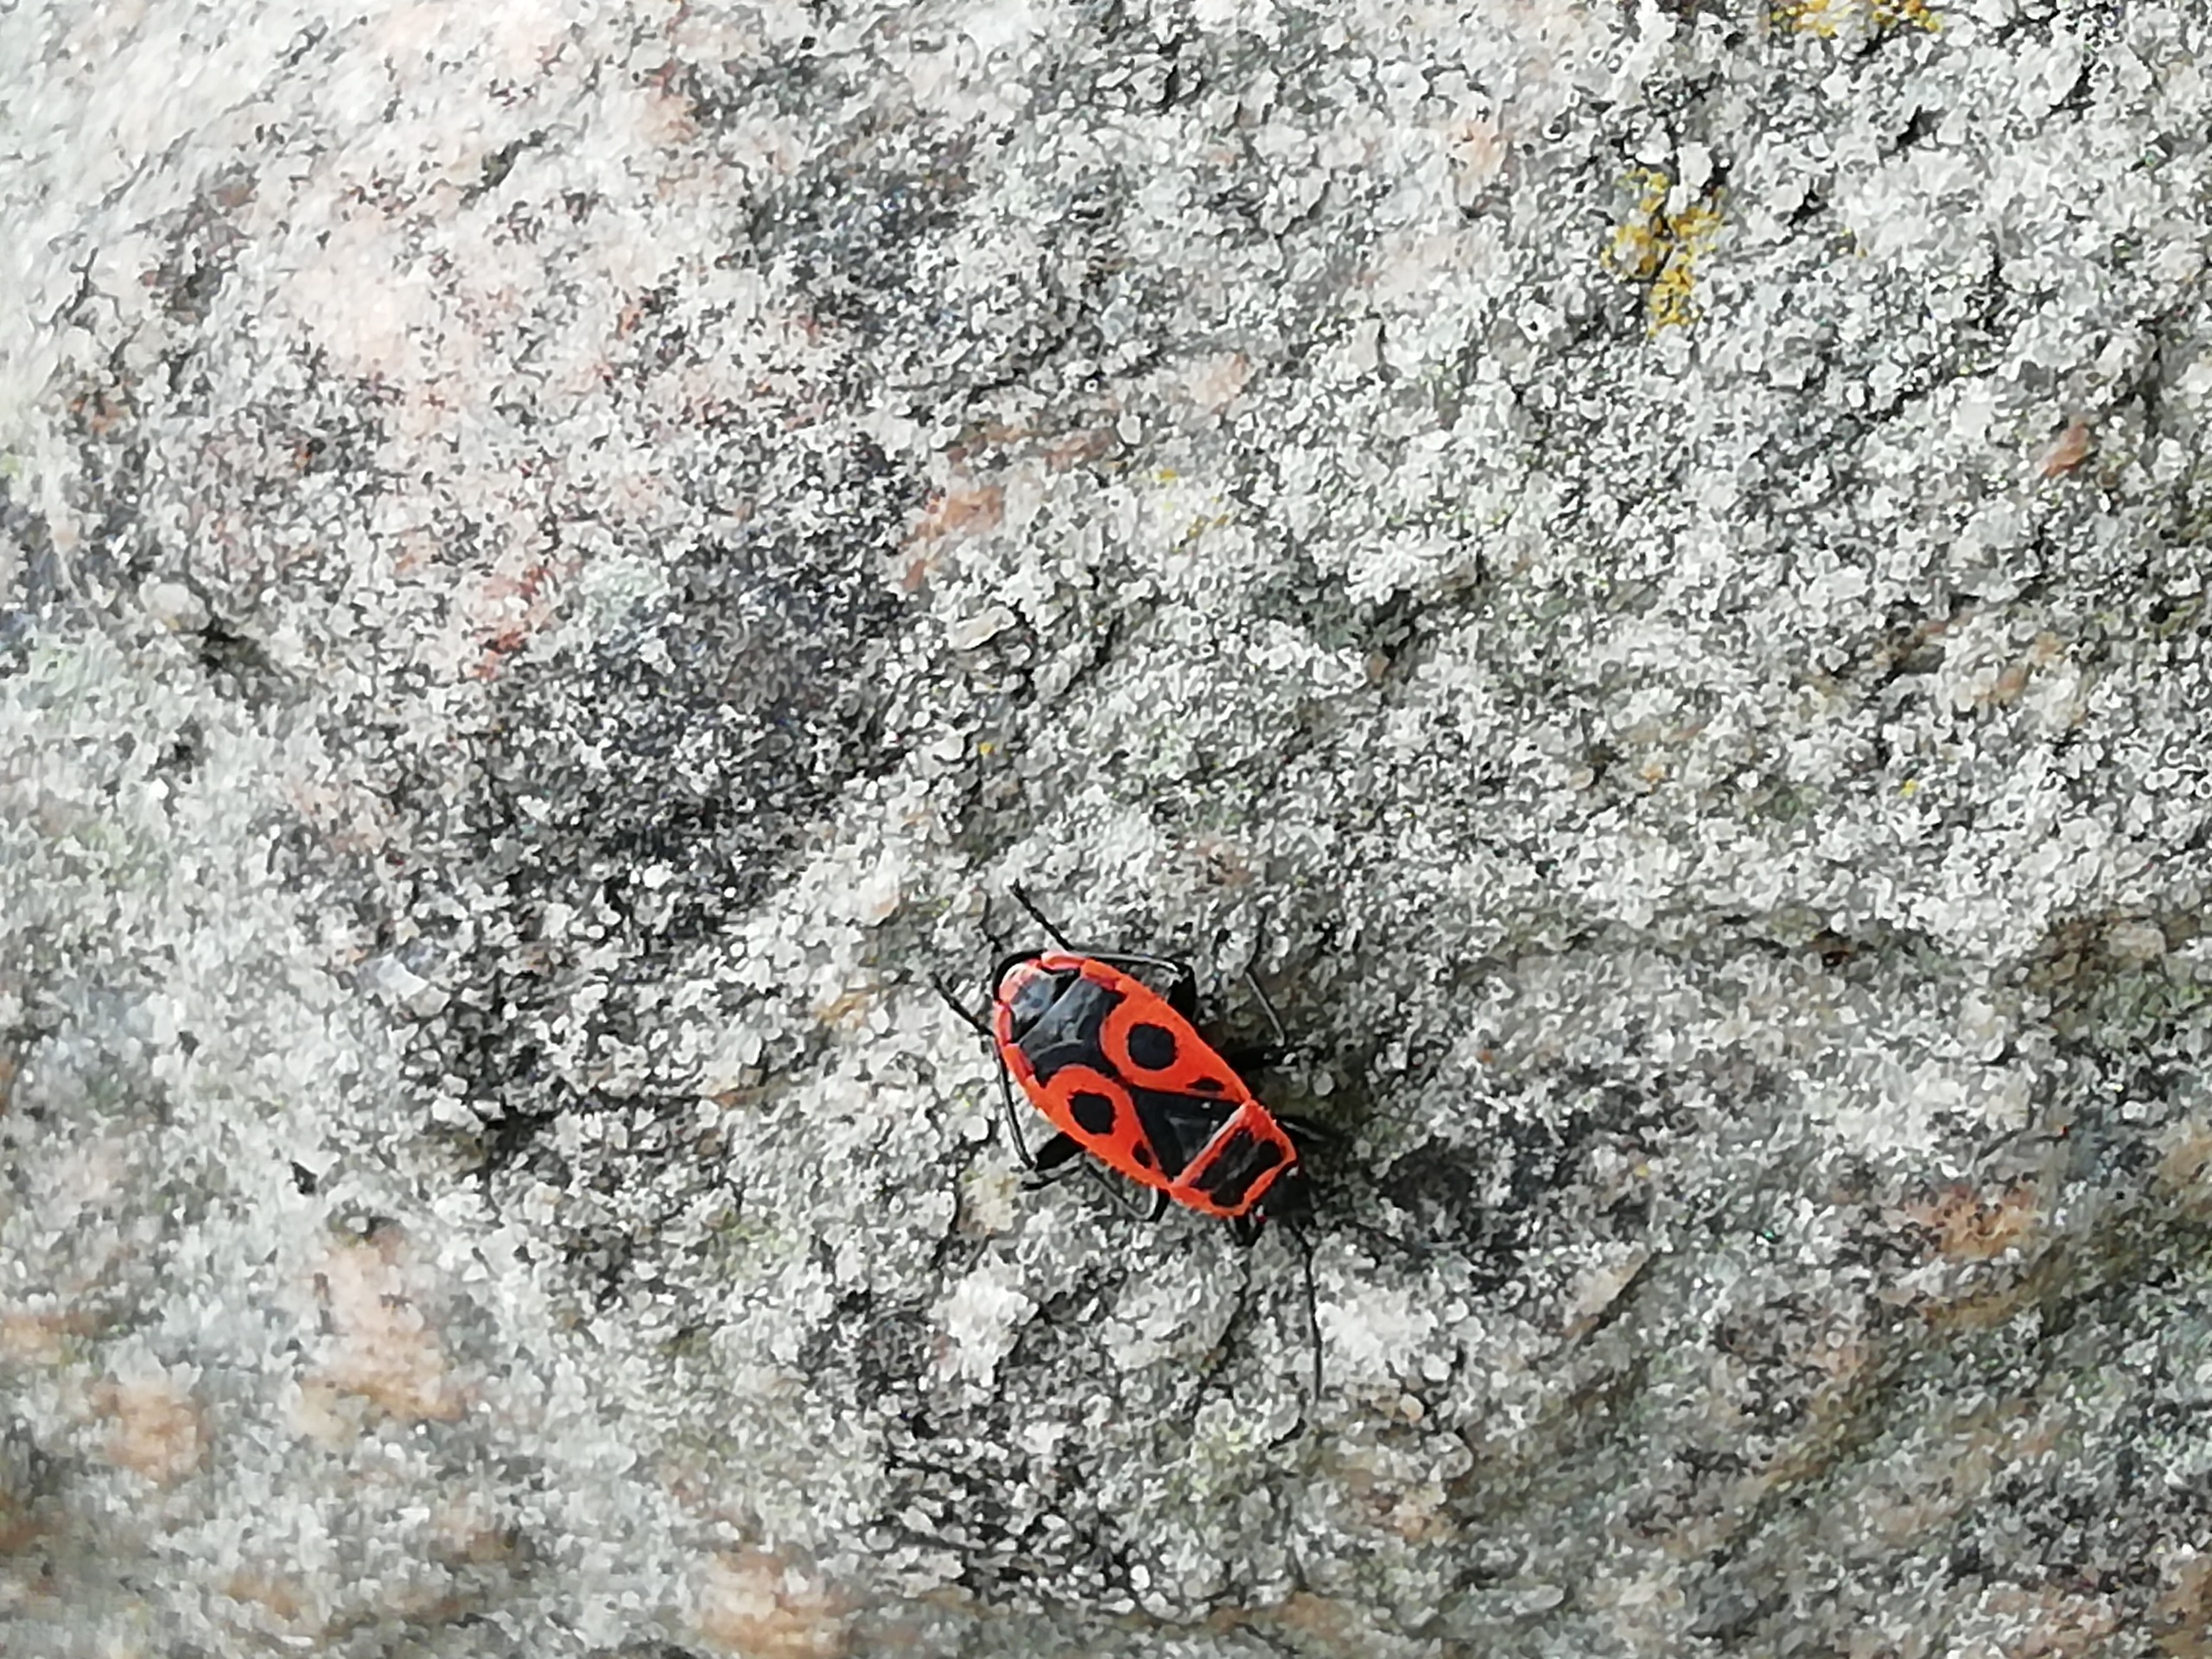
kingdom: Animalia
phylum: Arthropoda
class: Insecta
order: Hemiptera
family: Pyrrhocoridae
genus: Pyrrhocoris
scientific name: Pyrrhocoris apterus
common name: Ildtæge
